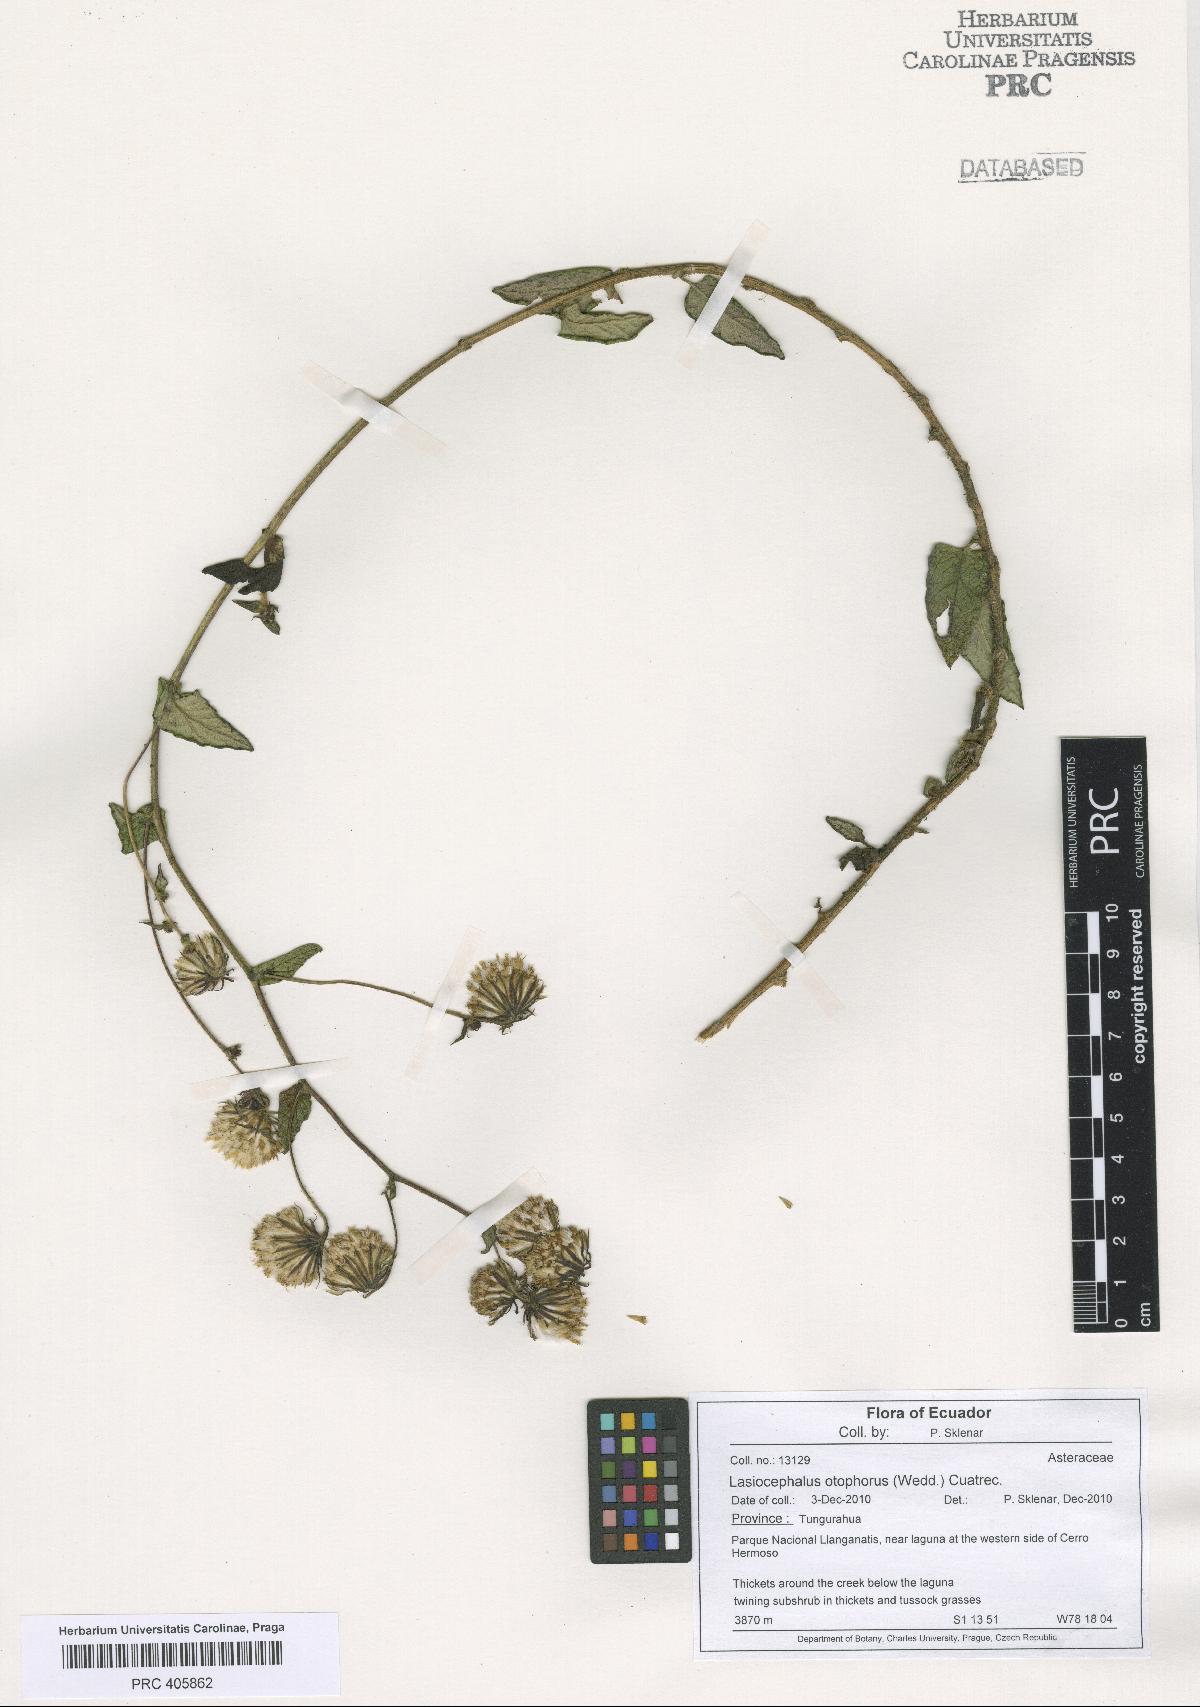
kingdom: Plantae
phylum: Tracheophyta
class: Magnoliopsida
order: Asterales
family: Asteraceae
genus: Aetheolaena
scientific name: Aetheolaena otophora
